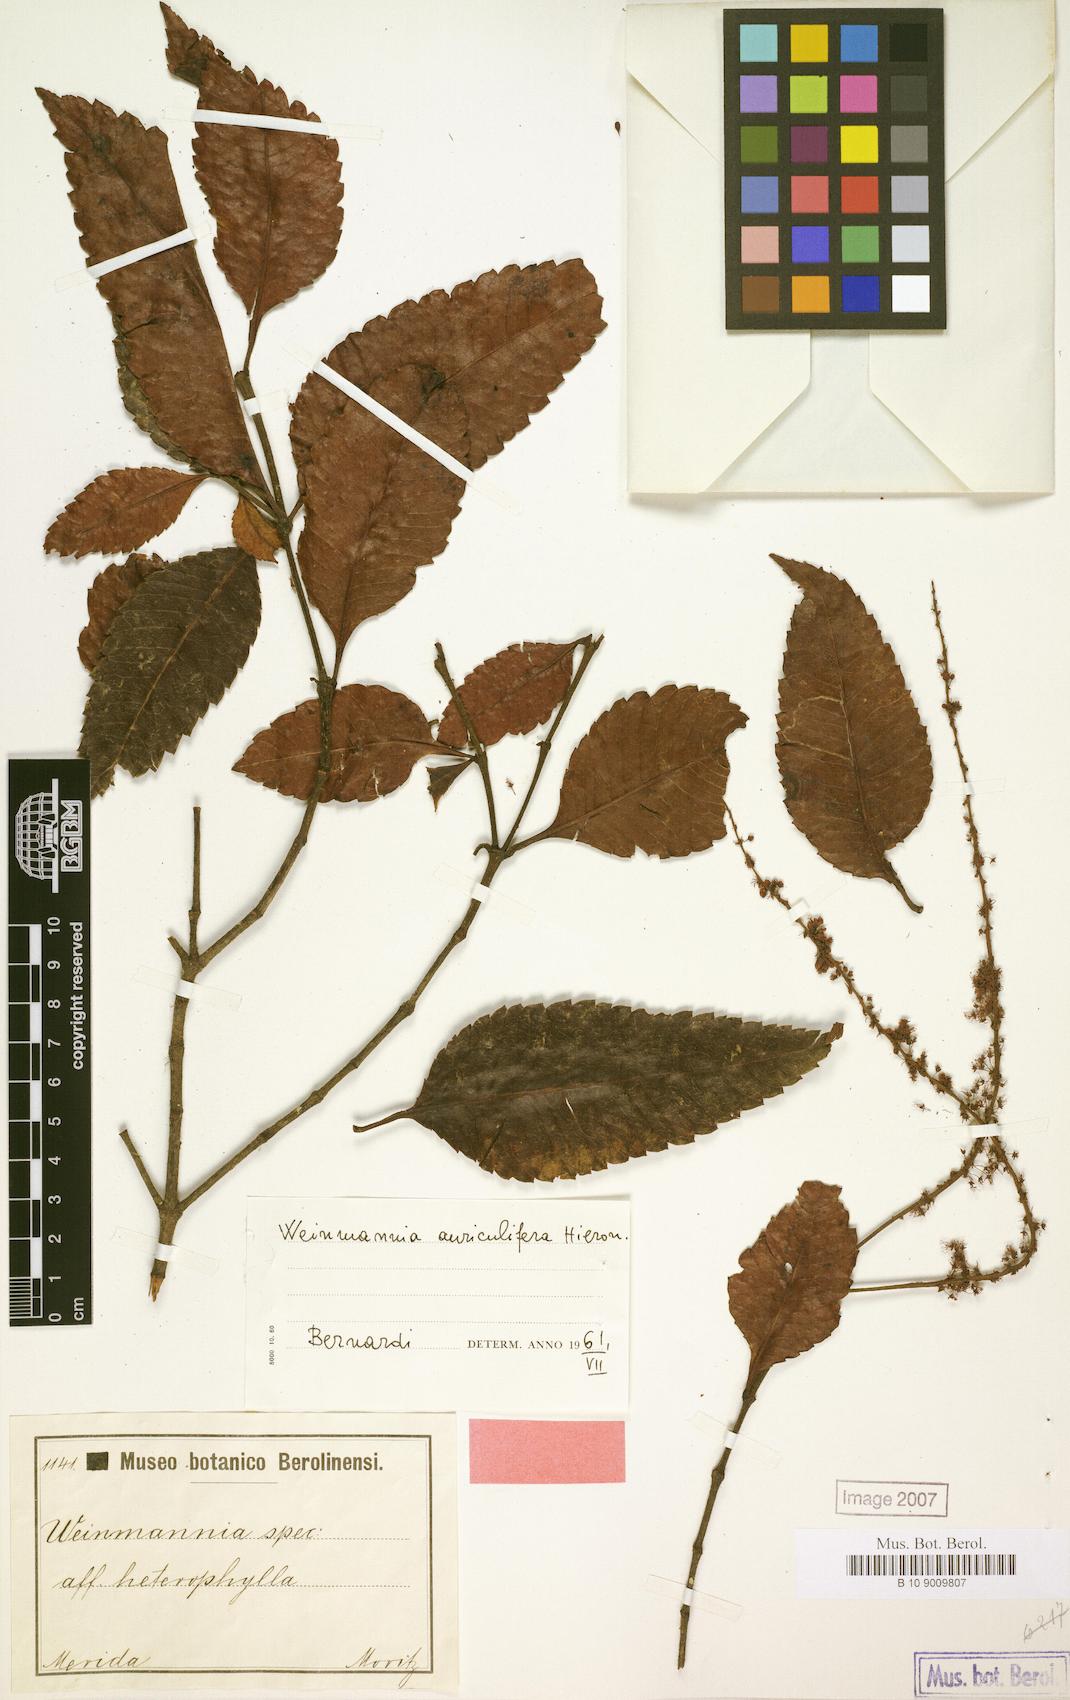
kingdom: Plantae
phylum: Tracheophyta
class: Magnoliopsida
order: Oxalidales
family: Cunoniaceae
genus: Weinmannia
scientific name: Weinmannia heterophylla
